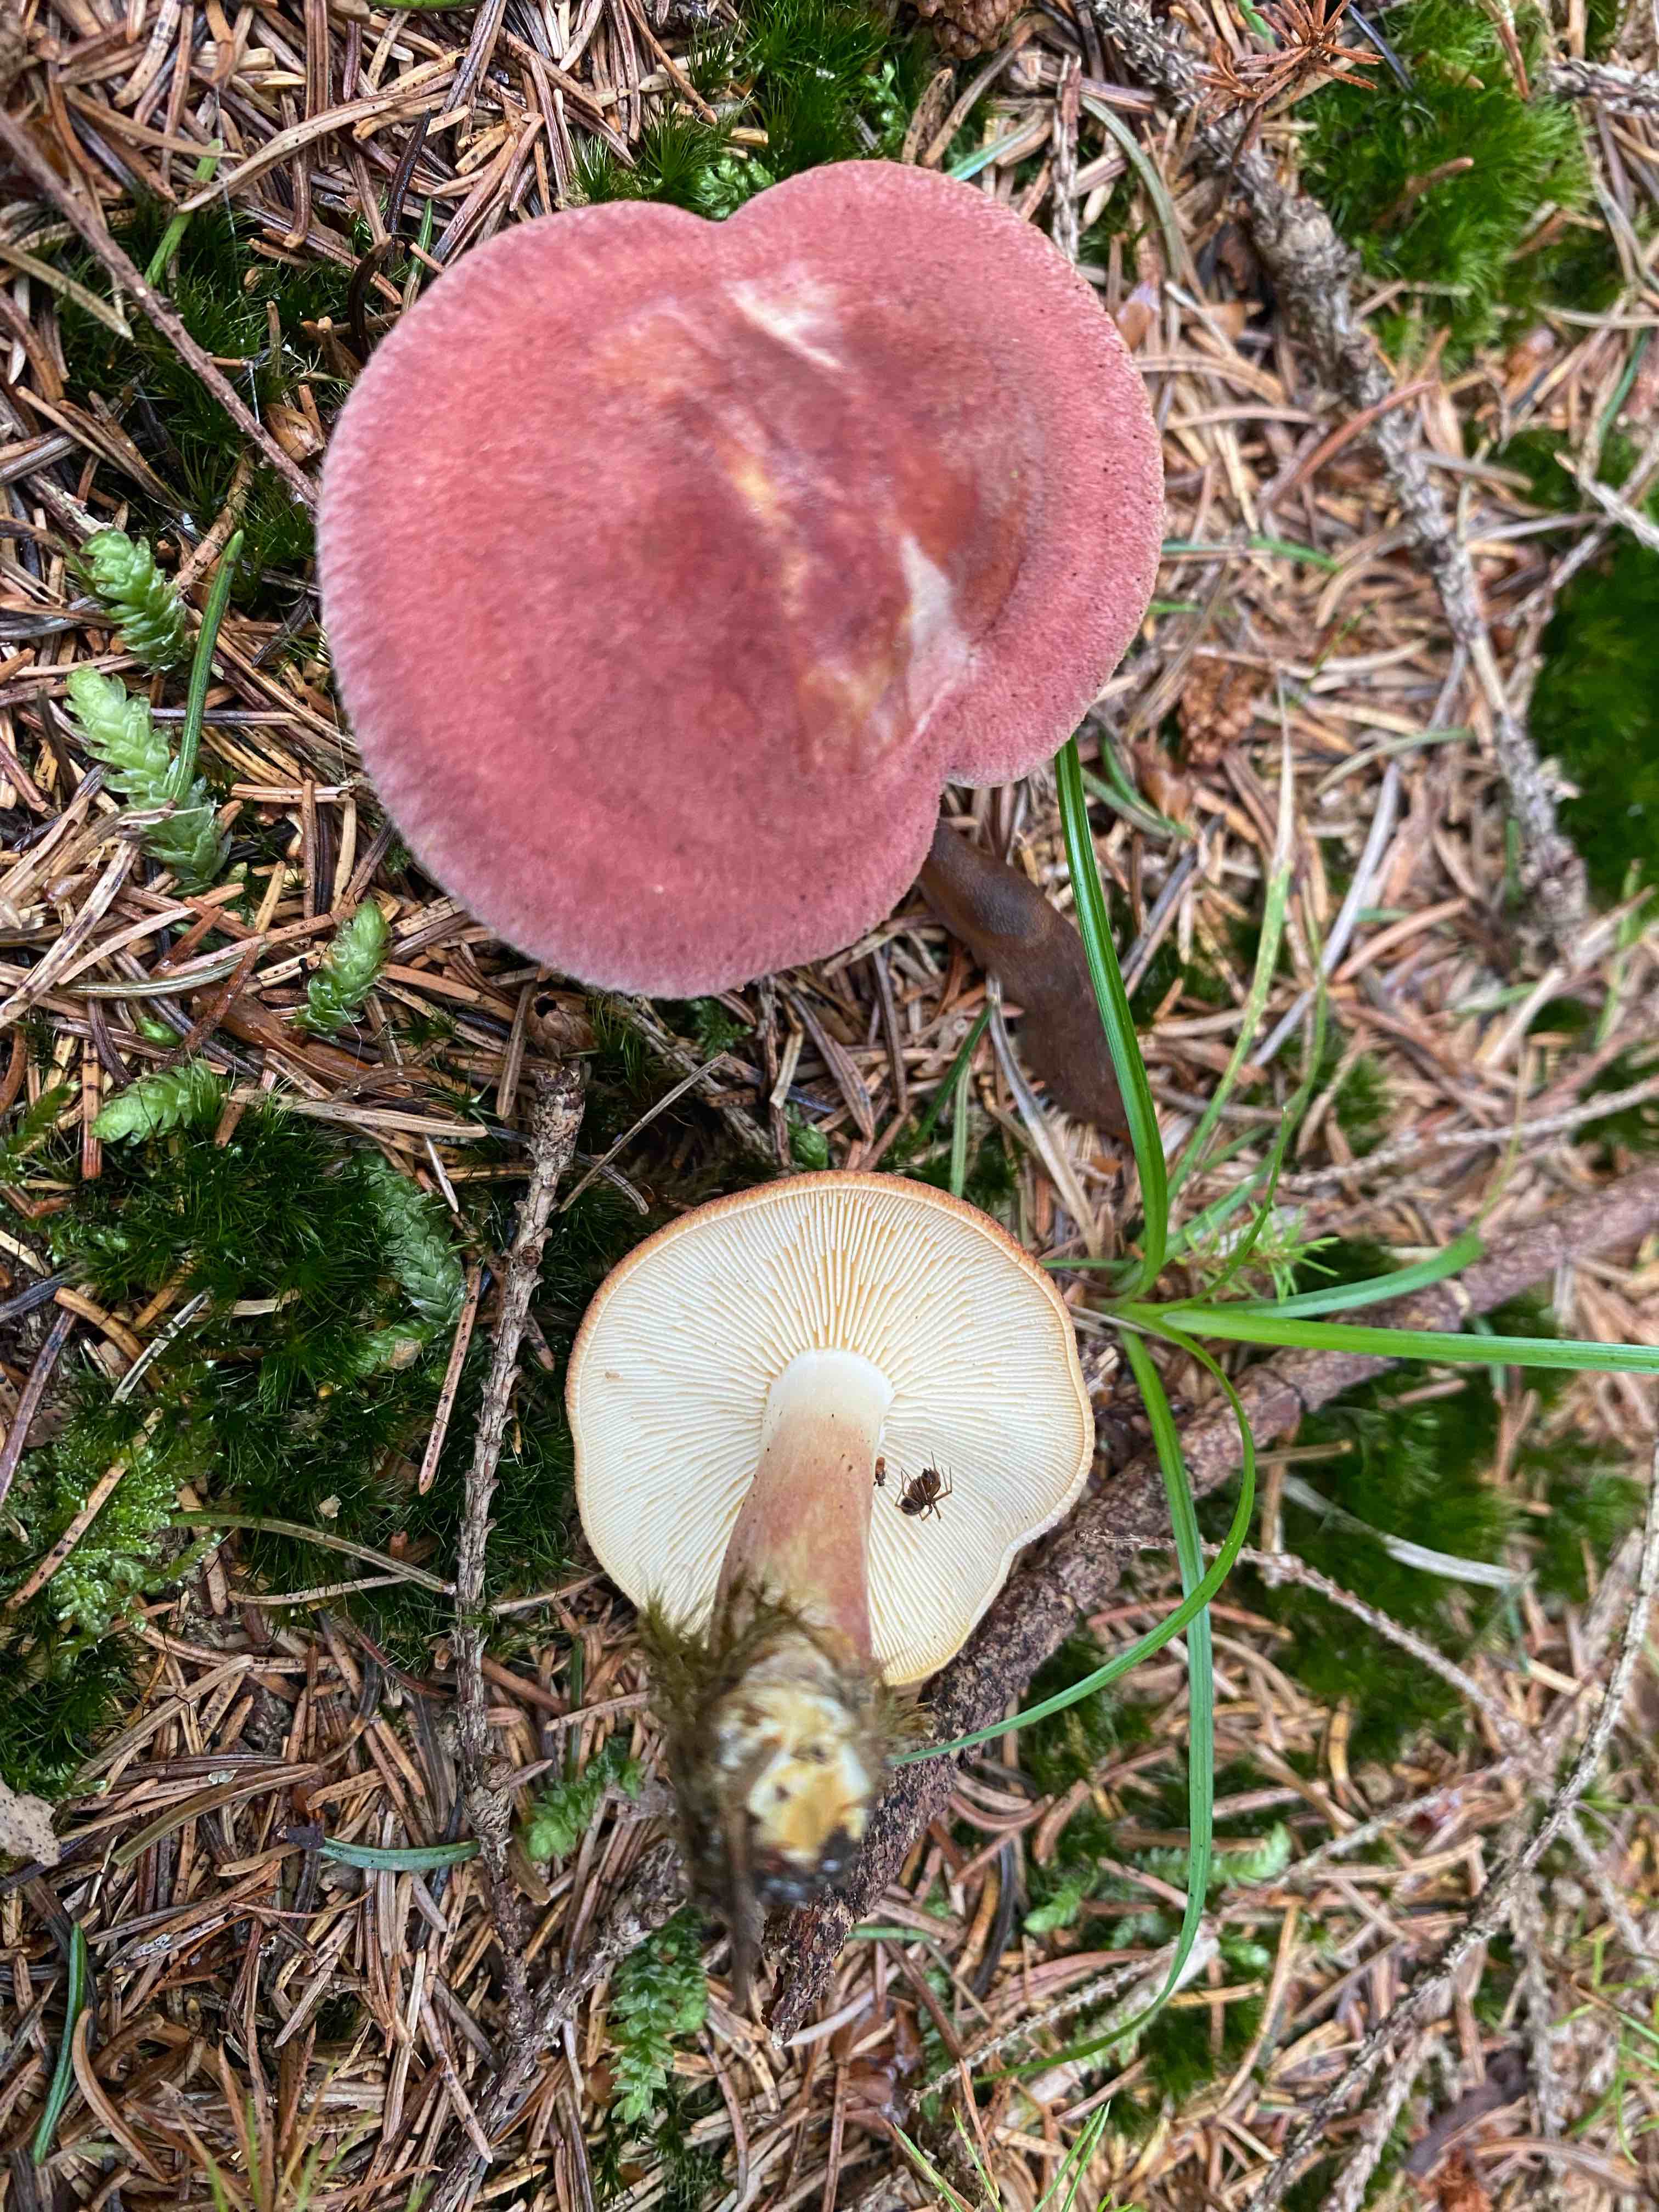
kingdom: Fungi
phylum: Basidiomycota
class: Agaricomycetes
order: Agaricales
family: Tricholomataceae
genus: Tricholomopsis
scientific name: Tricholomopsis rutilans
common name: purpur-væbnerhat
